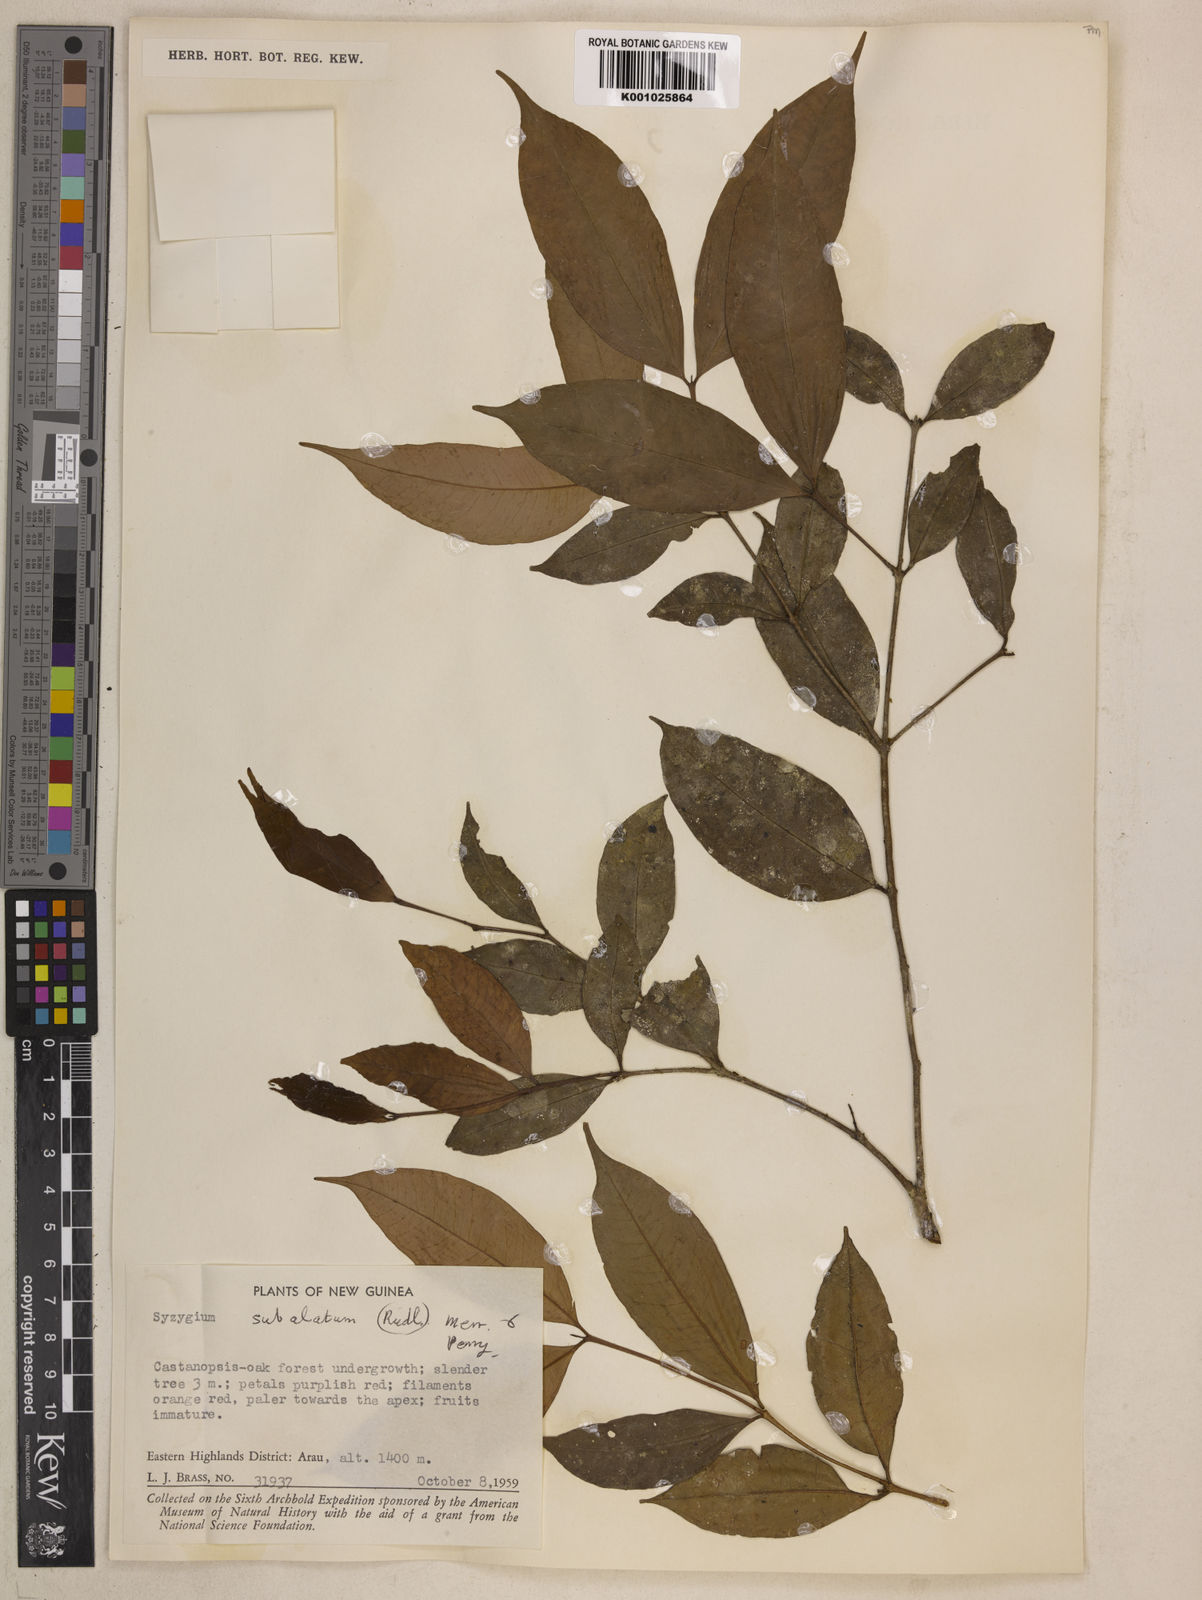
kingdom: Plantae
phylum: Tracheophyta
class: Magnoliopsida
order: Myrtales
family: Myrtaceae
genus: Syzygium
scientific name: Syzygium subalatum
